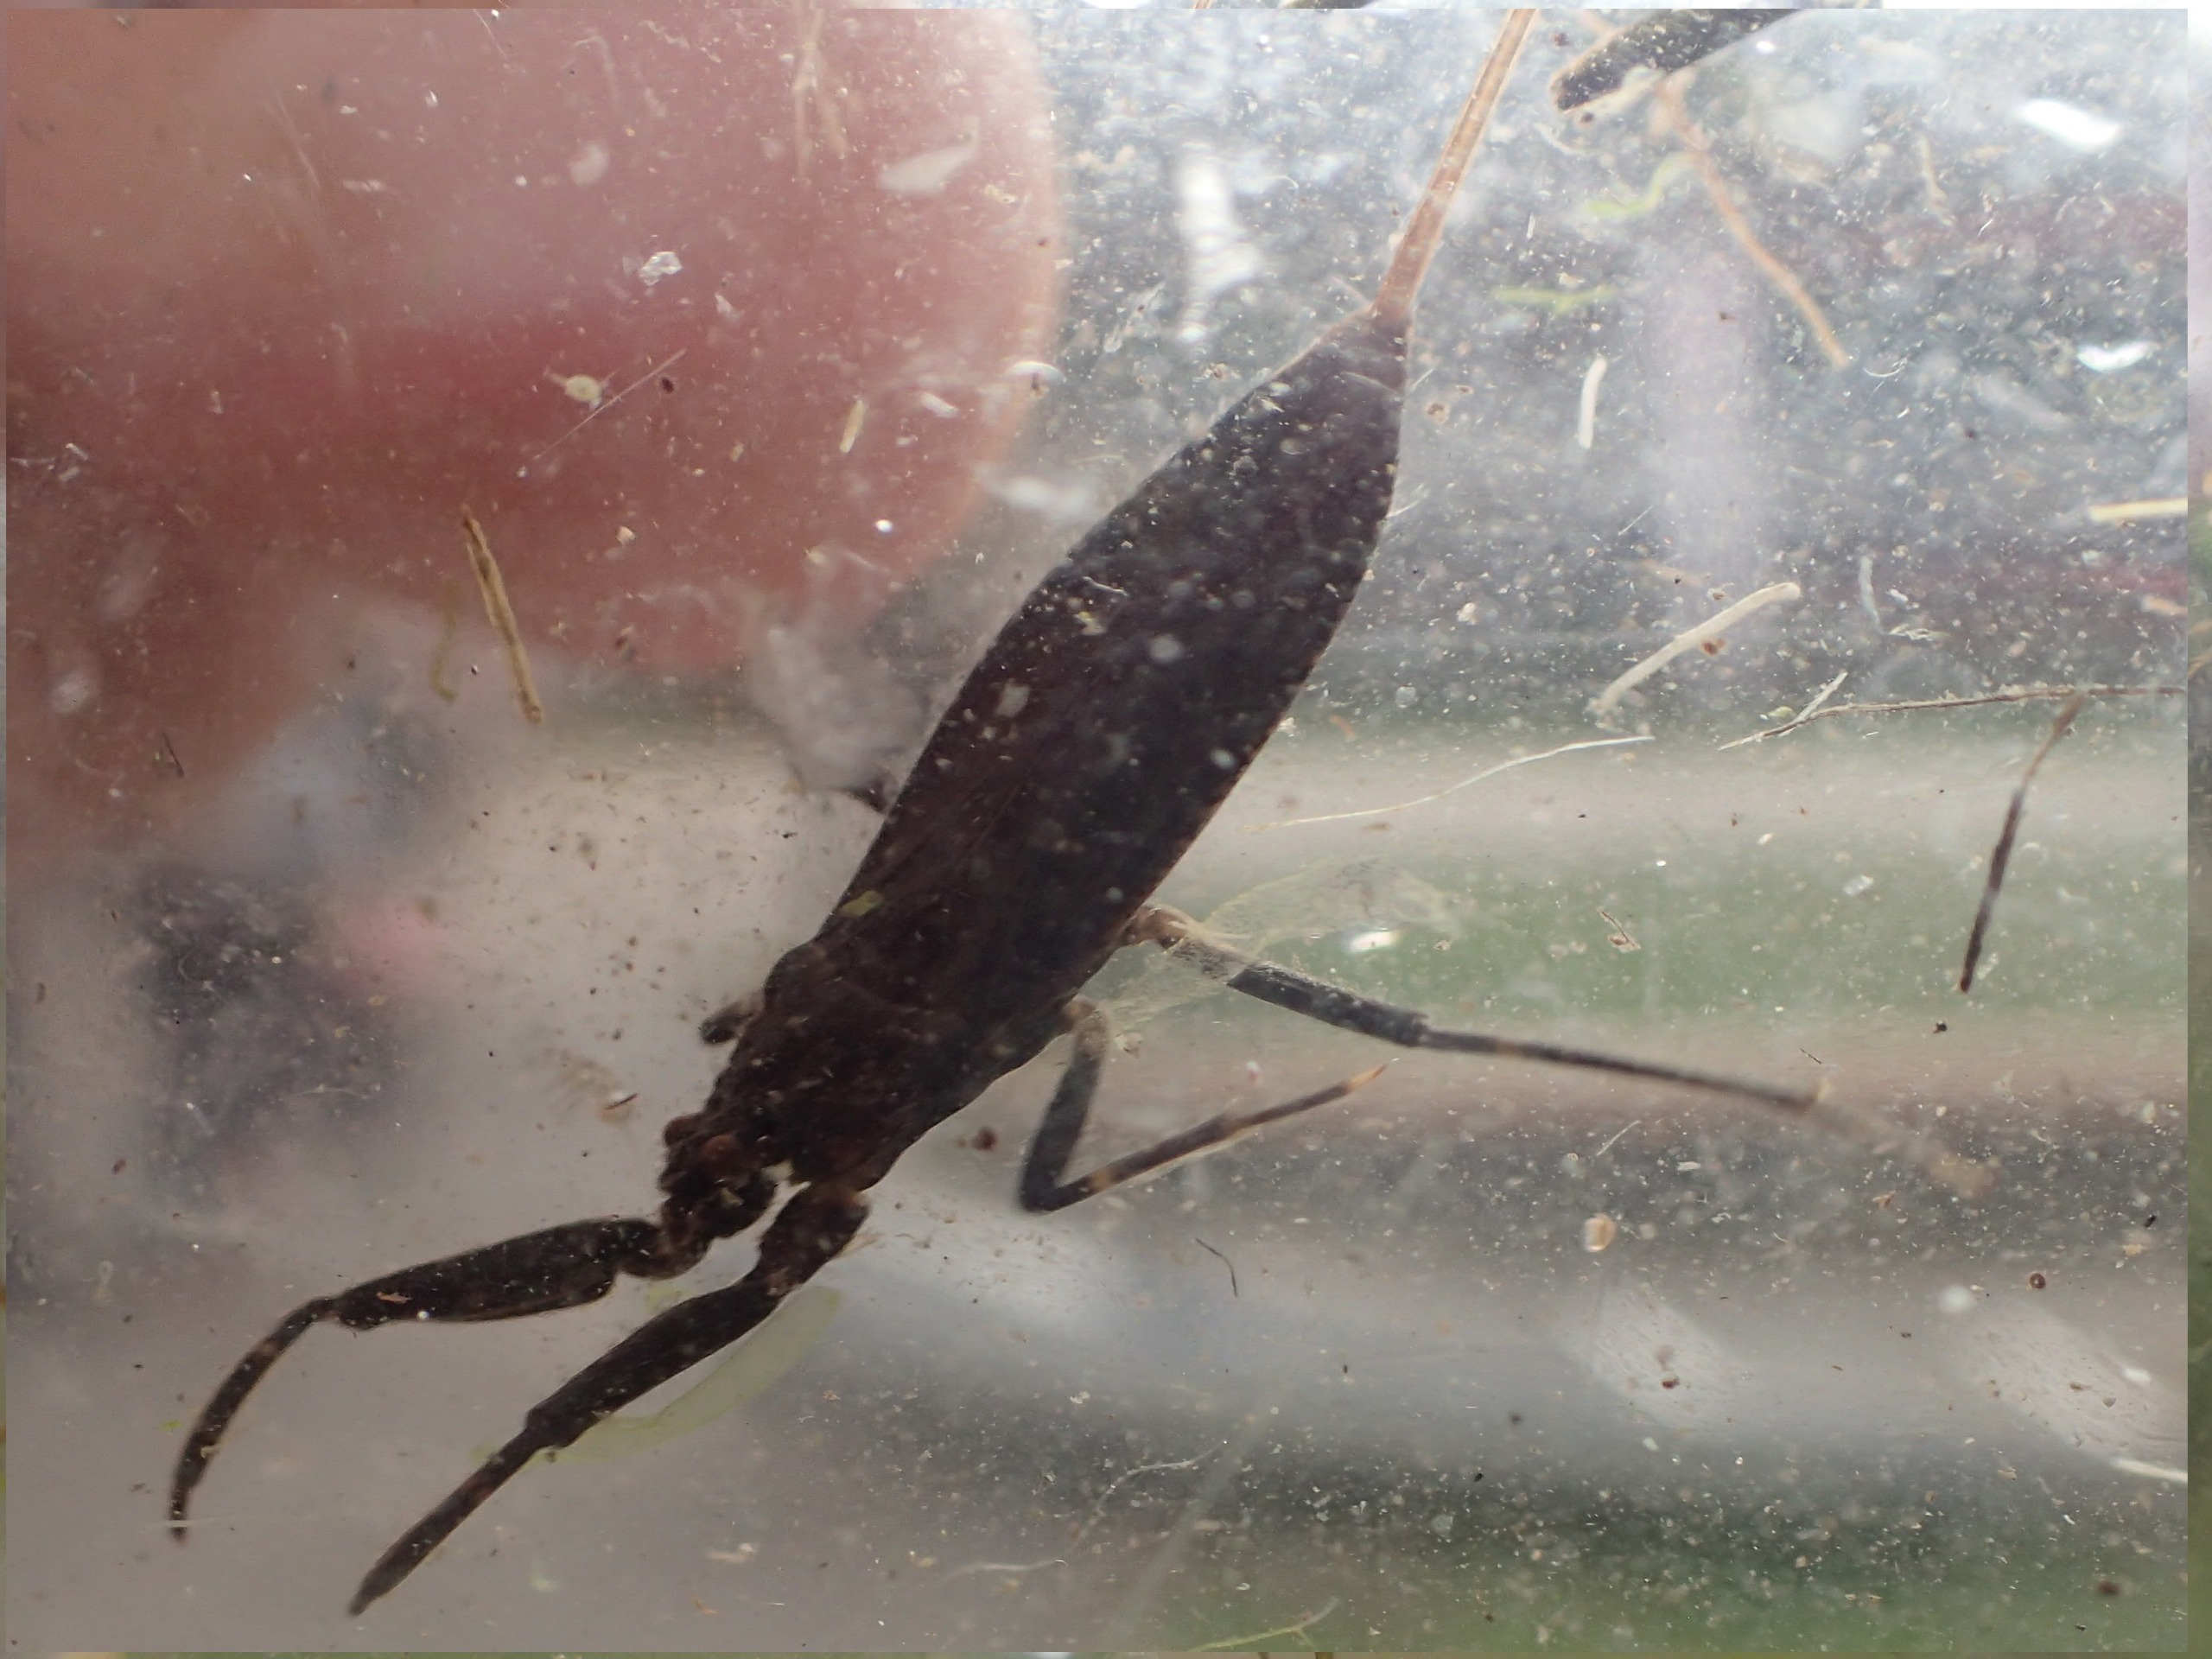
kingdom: Animalia
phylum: Arthropoda
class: Insecta
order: Hemiptera
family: Nepidae
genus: Nepa
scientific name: Nepa cinerea
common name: Skorpiontæge
